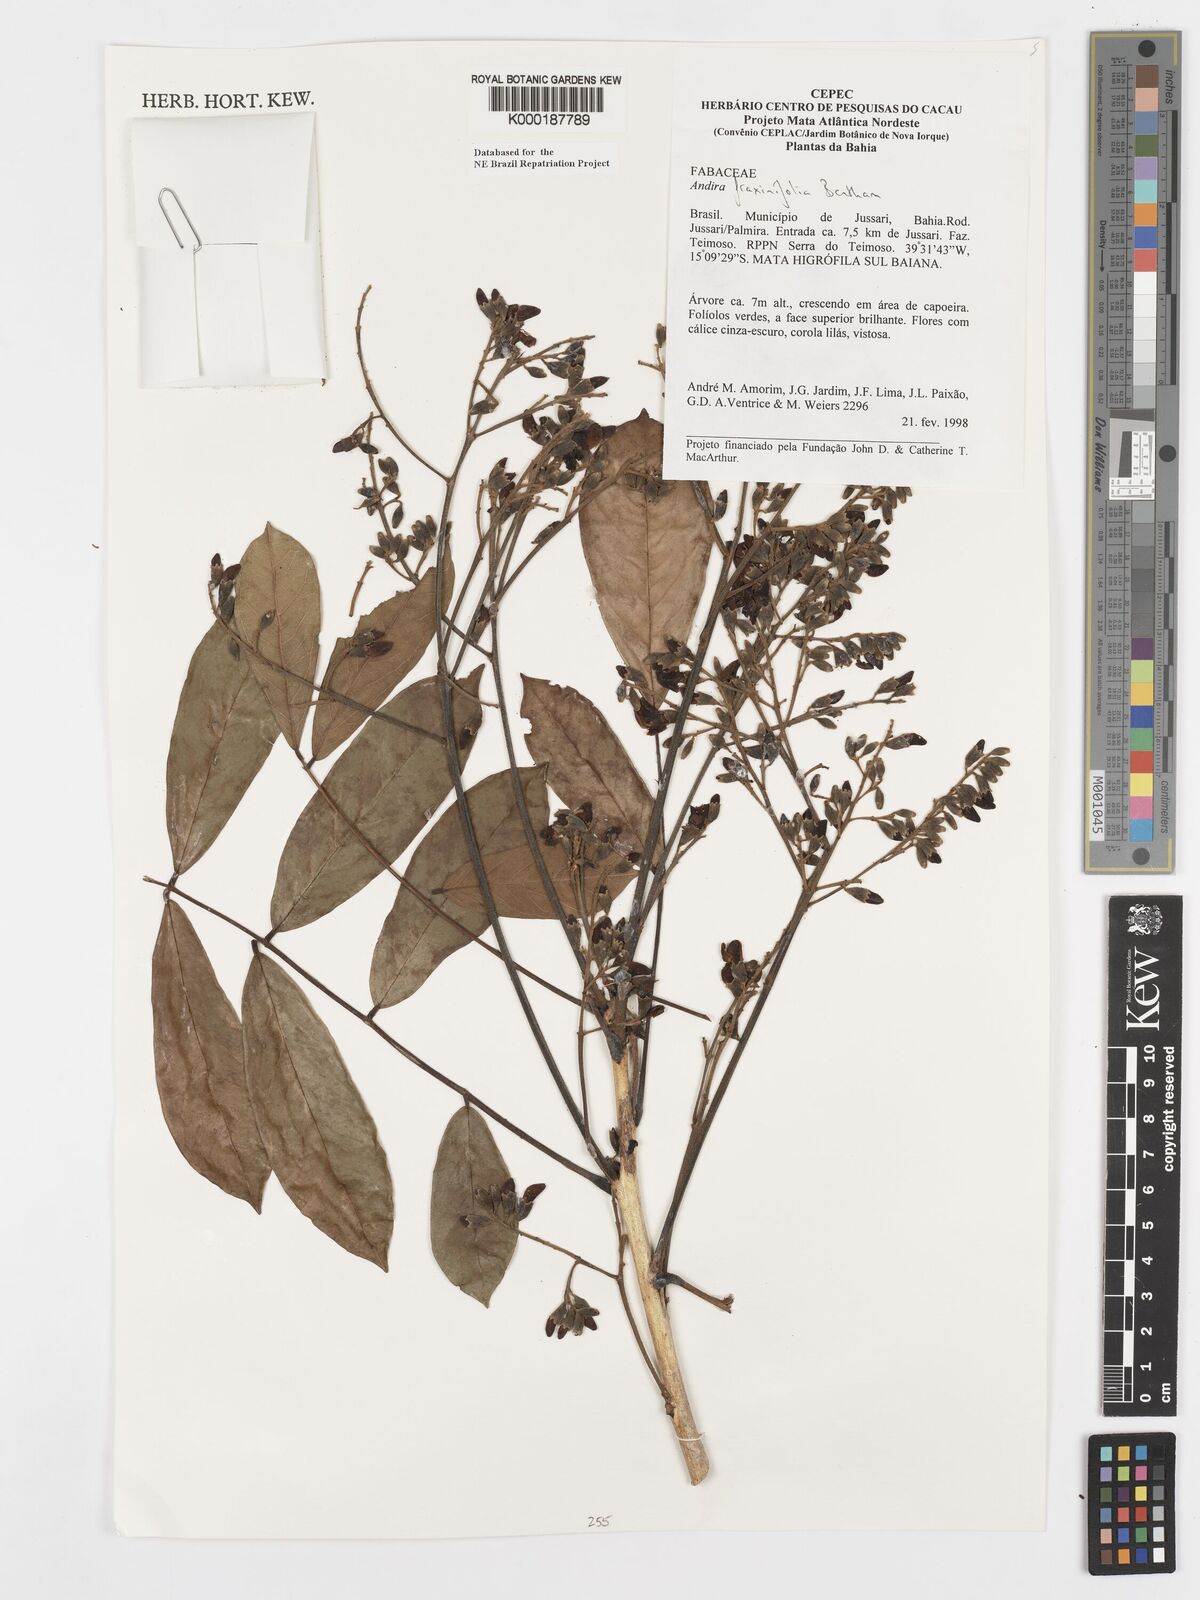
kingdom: Plantae
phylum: Tracheophyta
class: Magnoliopsida
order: Fabales
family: Fabaceae
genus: Andira
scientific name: Andira fraxinifolia
